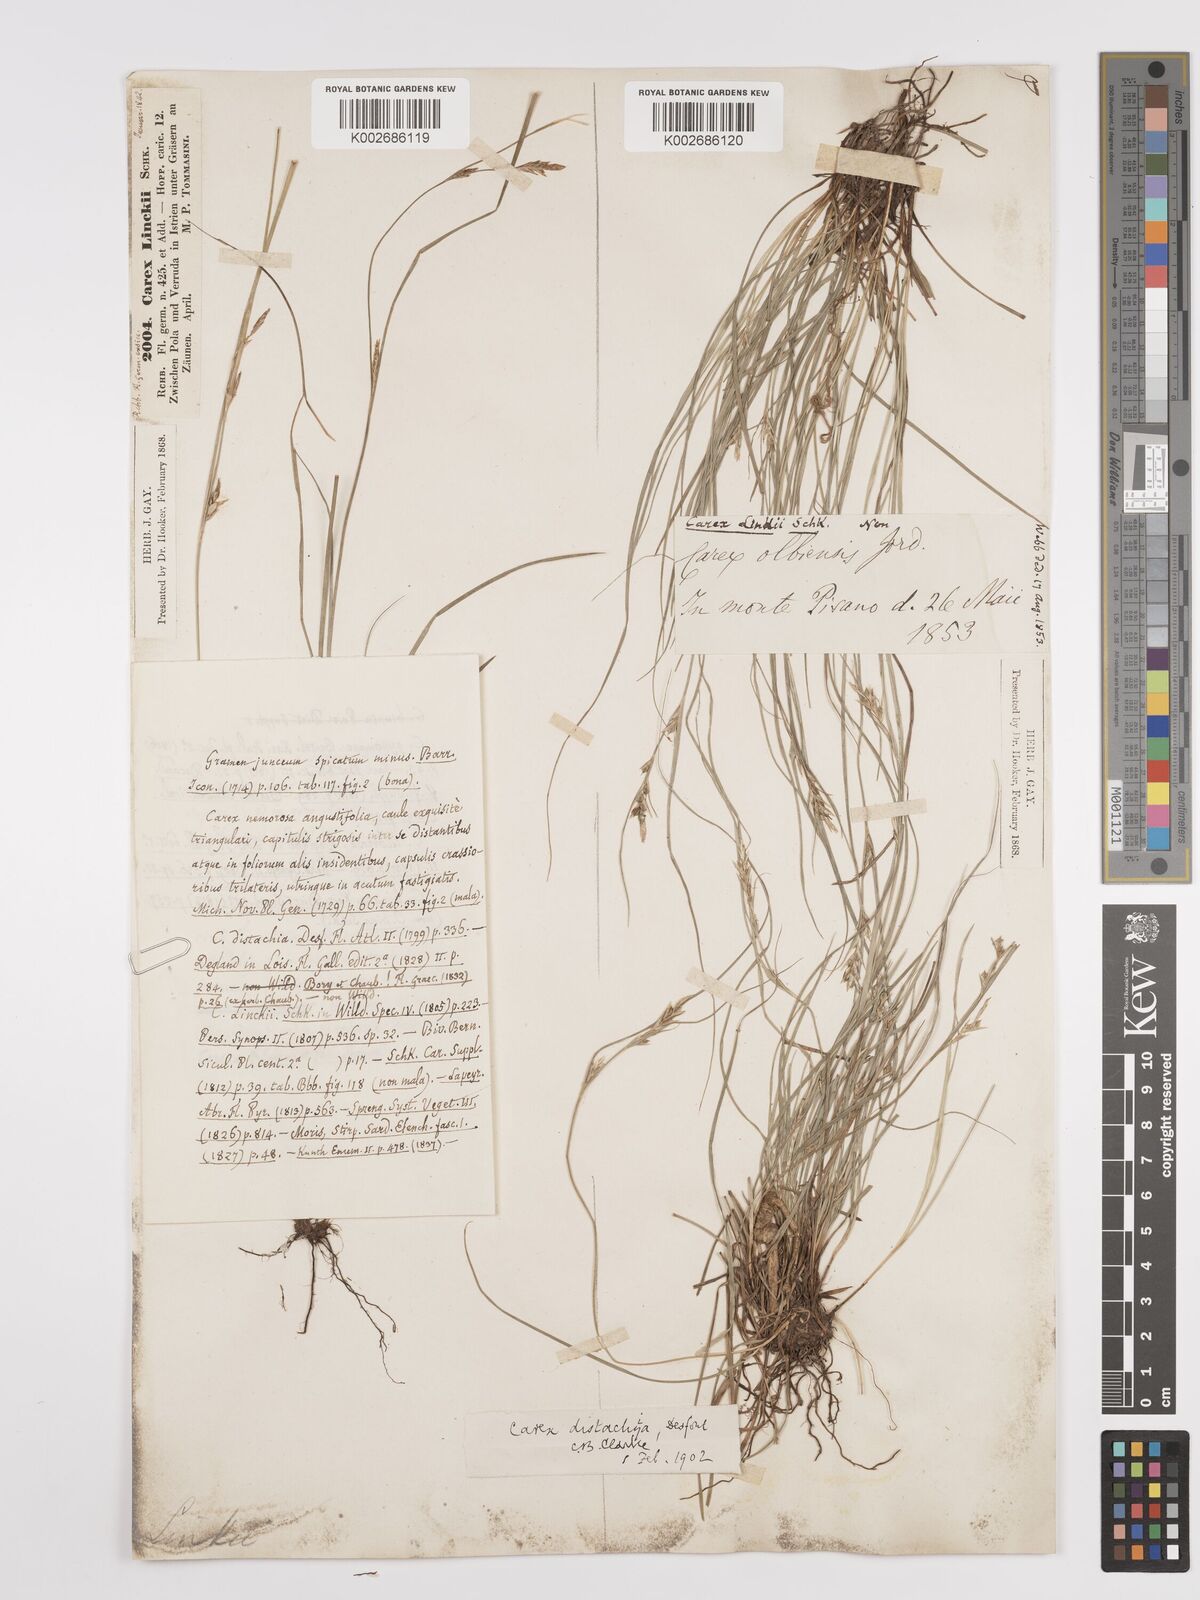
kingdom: Plantae
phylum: Tracheophyta
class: Liliopsida
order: Poales
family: Cyperaceae
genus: Carex
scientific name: Carex distachya
